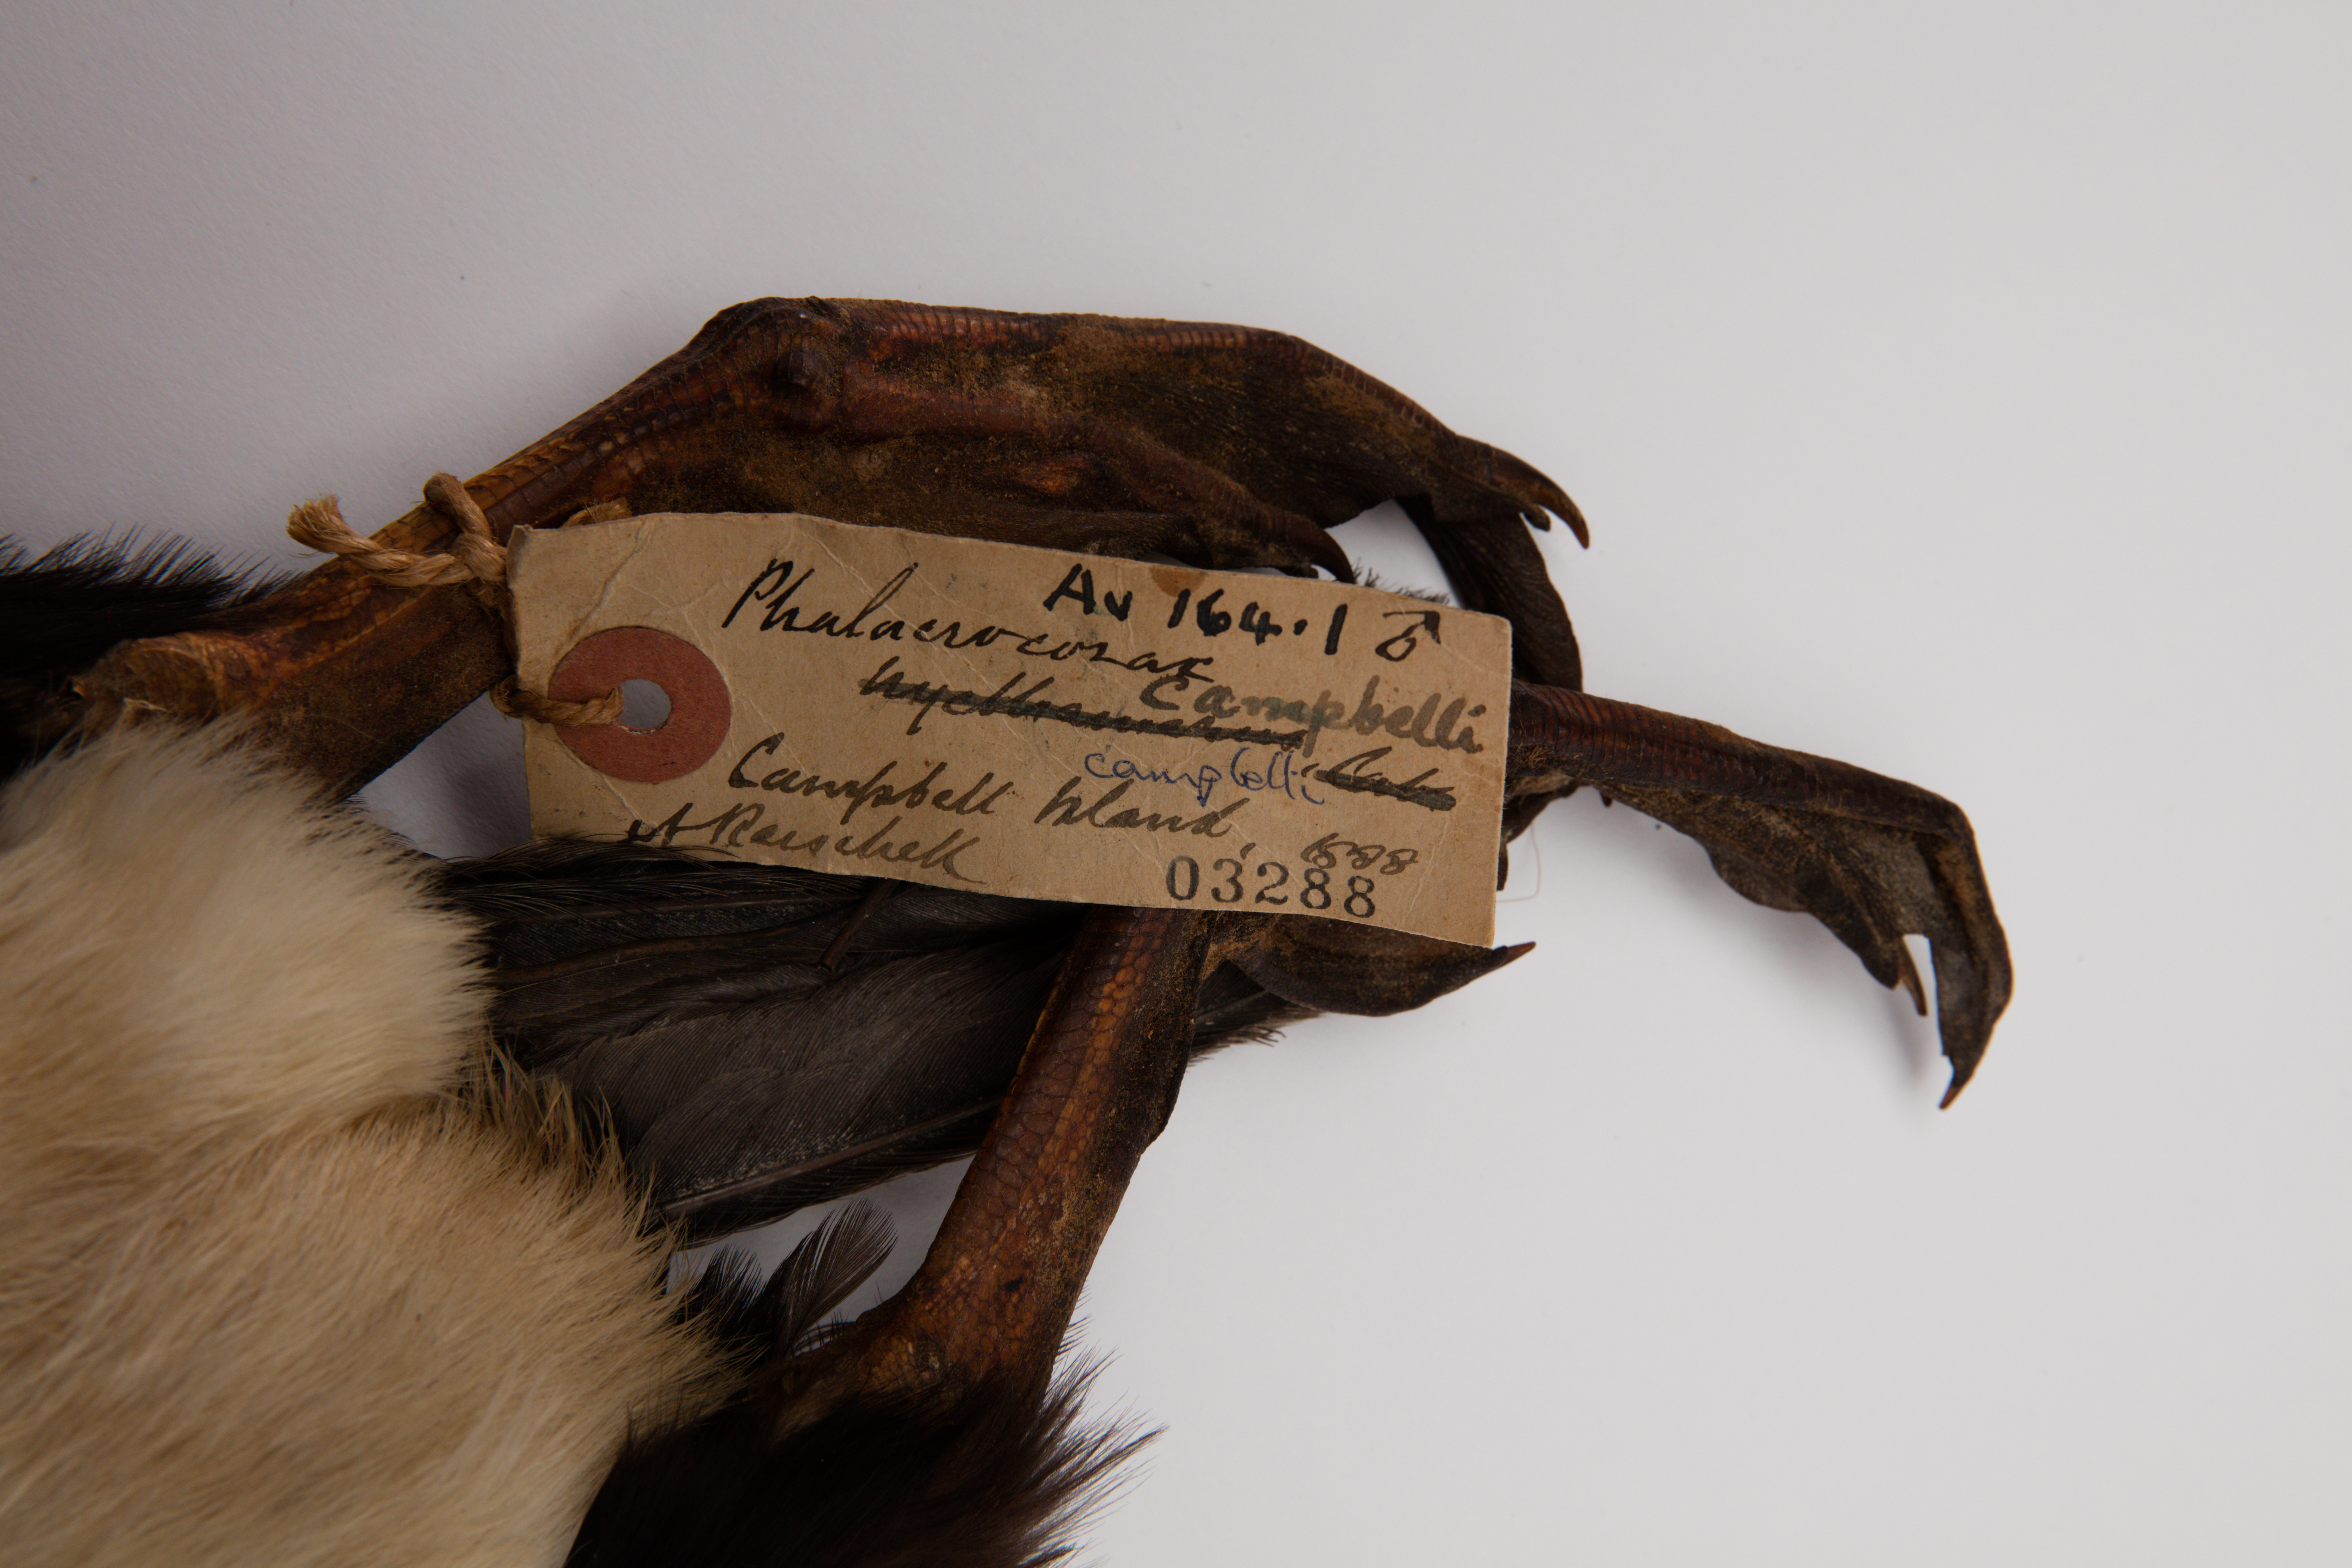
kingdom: Animalia
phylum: Chordata
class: Aves
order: Suliformes
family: Phalacrocoracidae
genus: Leucocarbo
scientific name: Leucocarbo campbelli
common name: Campbell shag
